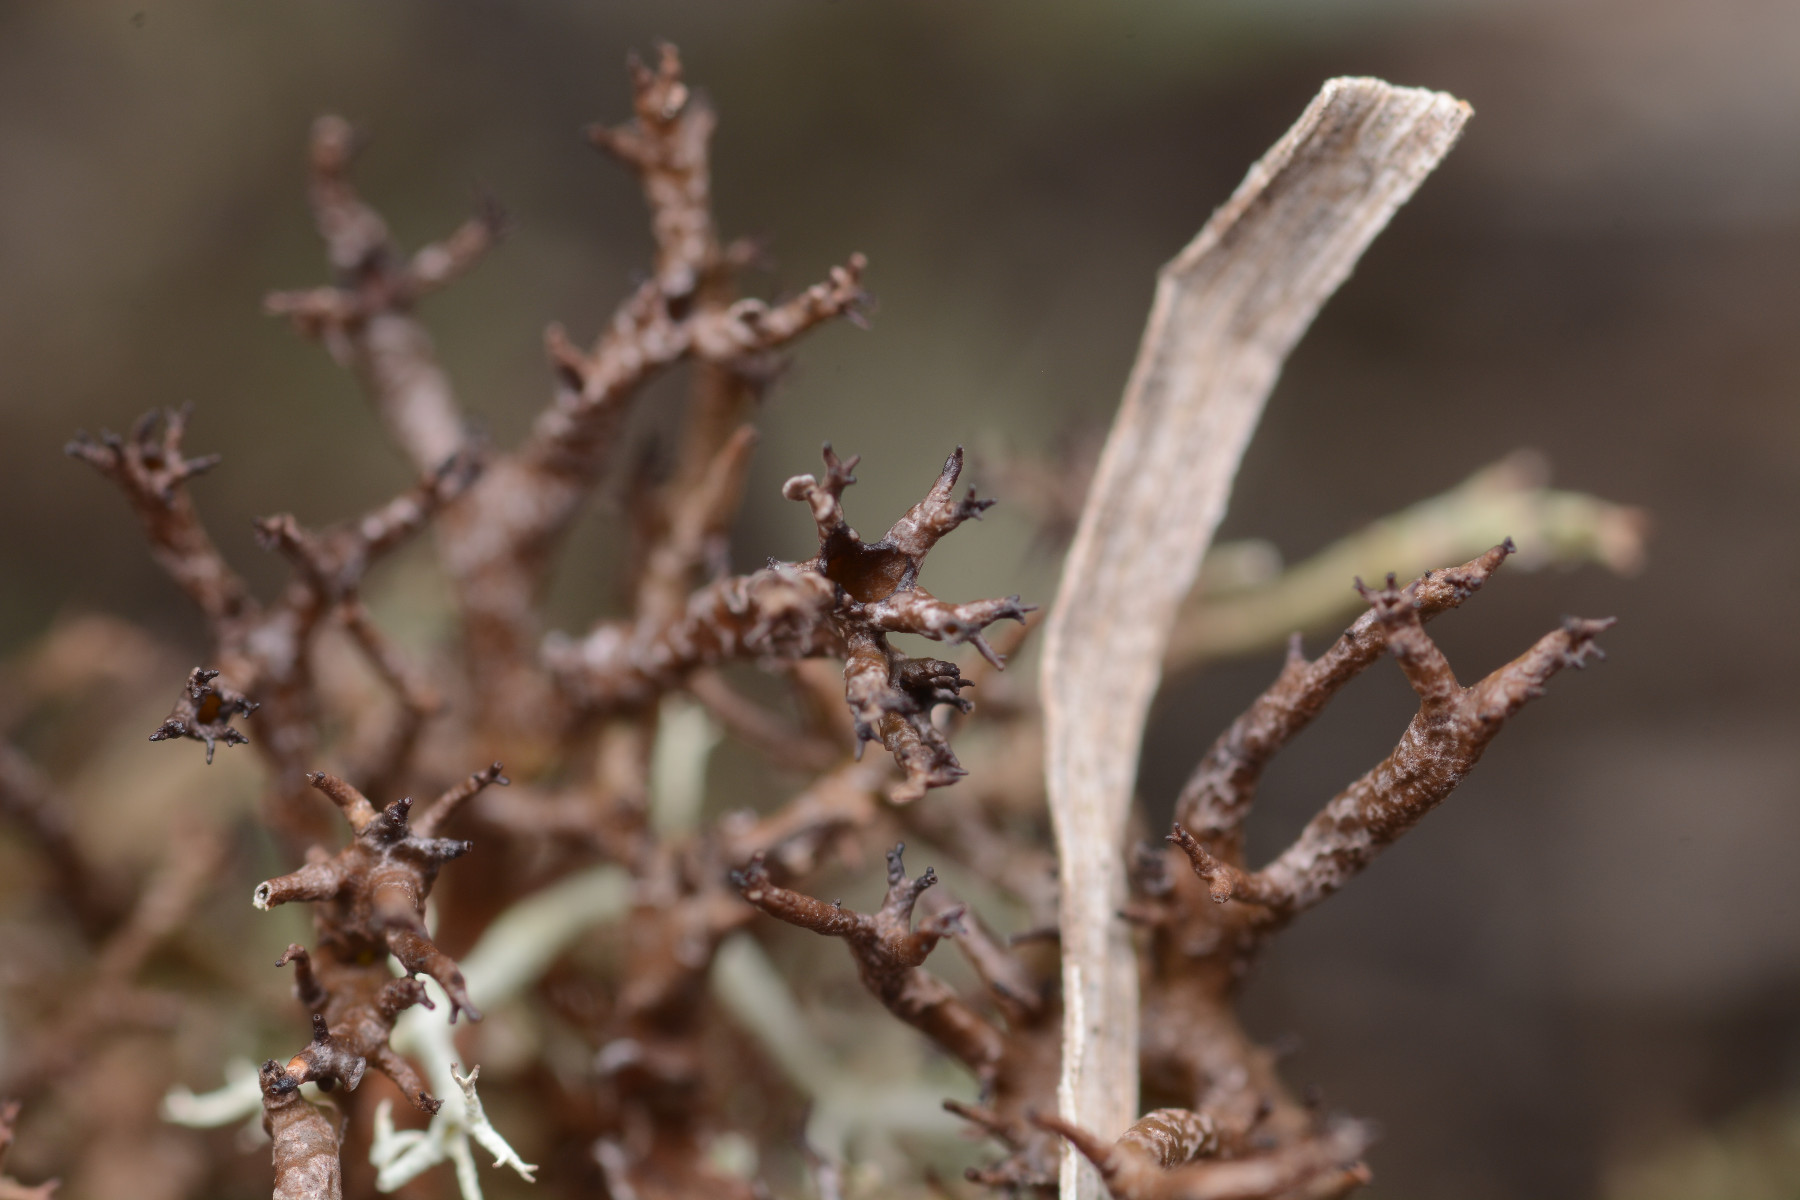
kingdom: Fungi
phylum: Ascomycota
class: Lecanoromycetes
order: Lecanorales
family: Cladoniaceae
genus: Cladonia
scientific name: Cladonia crispata
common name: takket bægerlav
